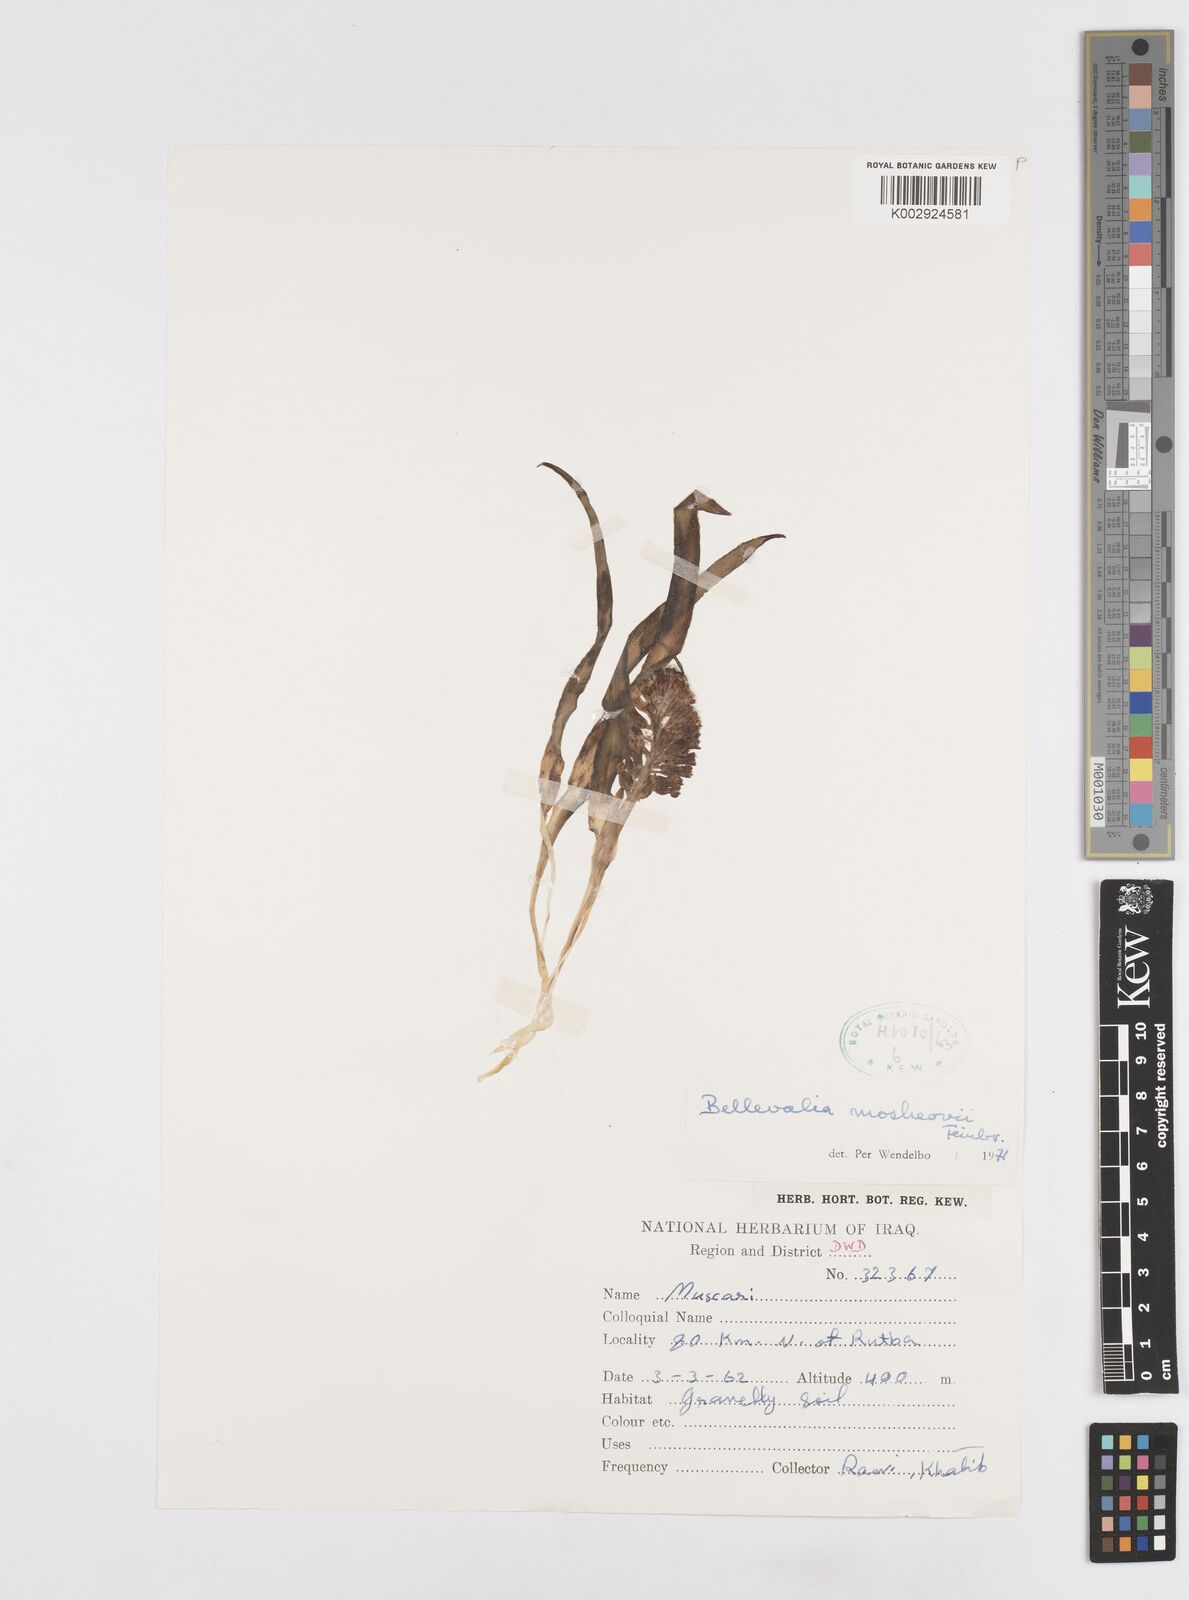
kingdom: Plantae
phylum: Tracheophyta
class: Liliopsida
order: Asparagales
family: Asparagaceae
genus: Bellevalia
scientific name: Bellevalia mosheovii
